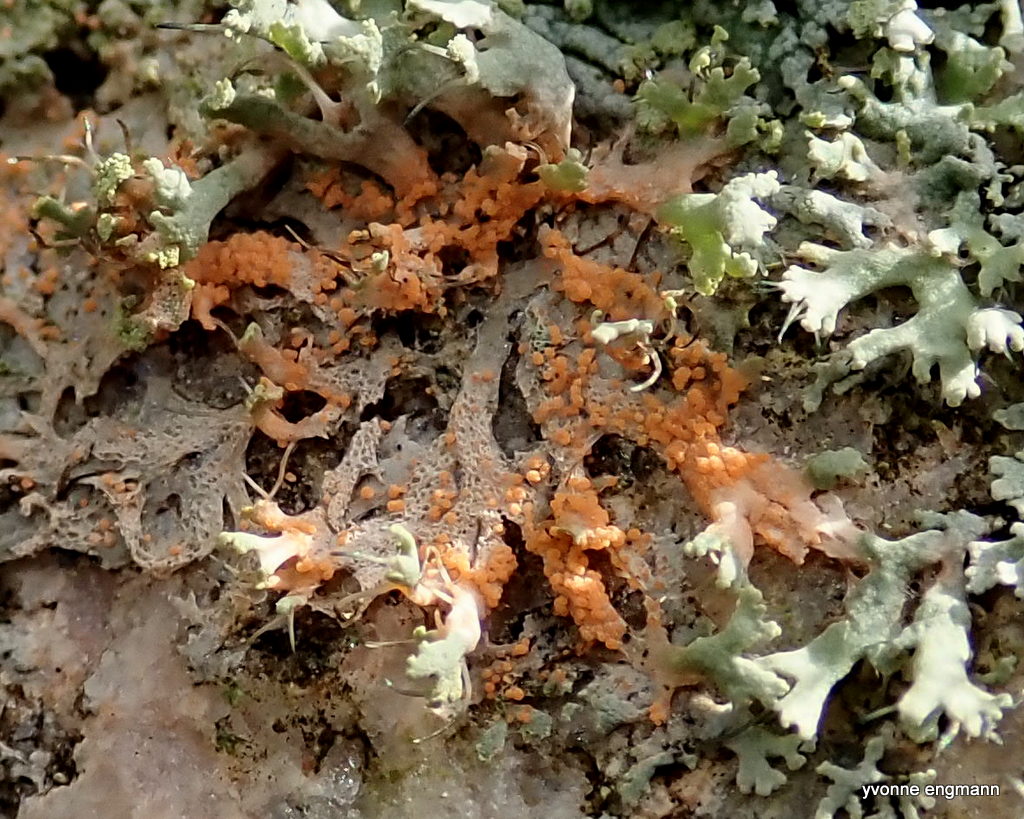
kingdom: Fungi
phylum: Basidiomycota
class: Agaricomycetes
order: Corticiales
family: Corticiaceae
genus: Erythricium
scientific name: Erythricium aurantiacum
